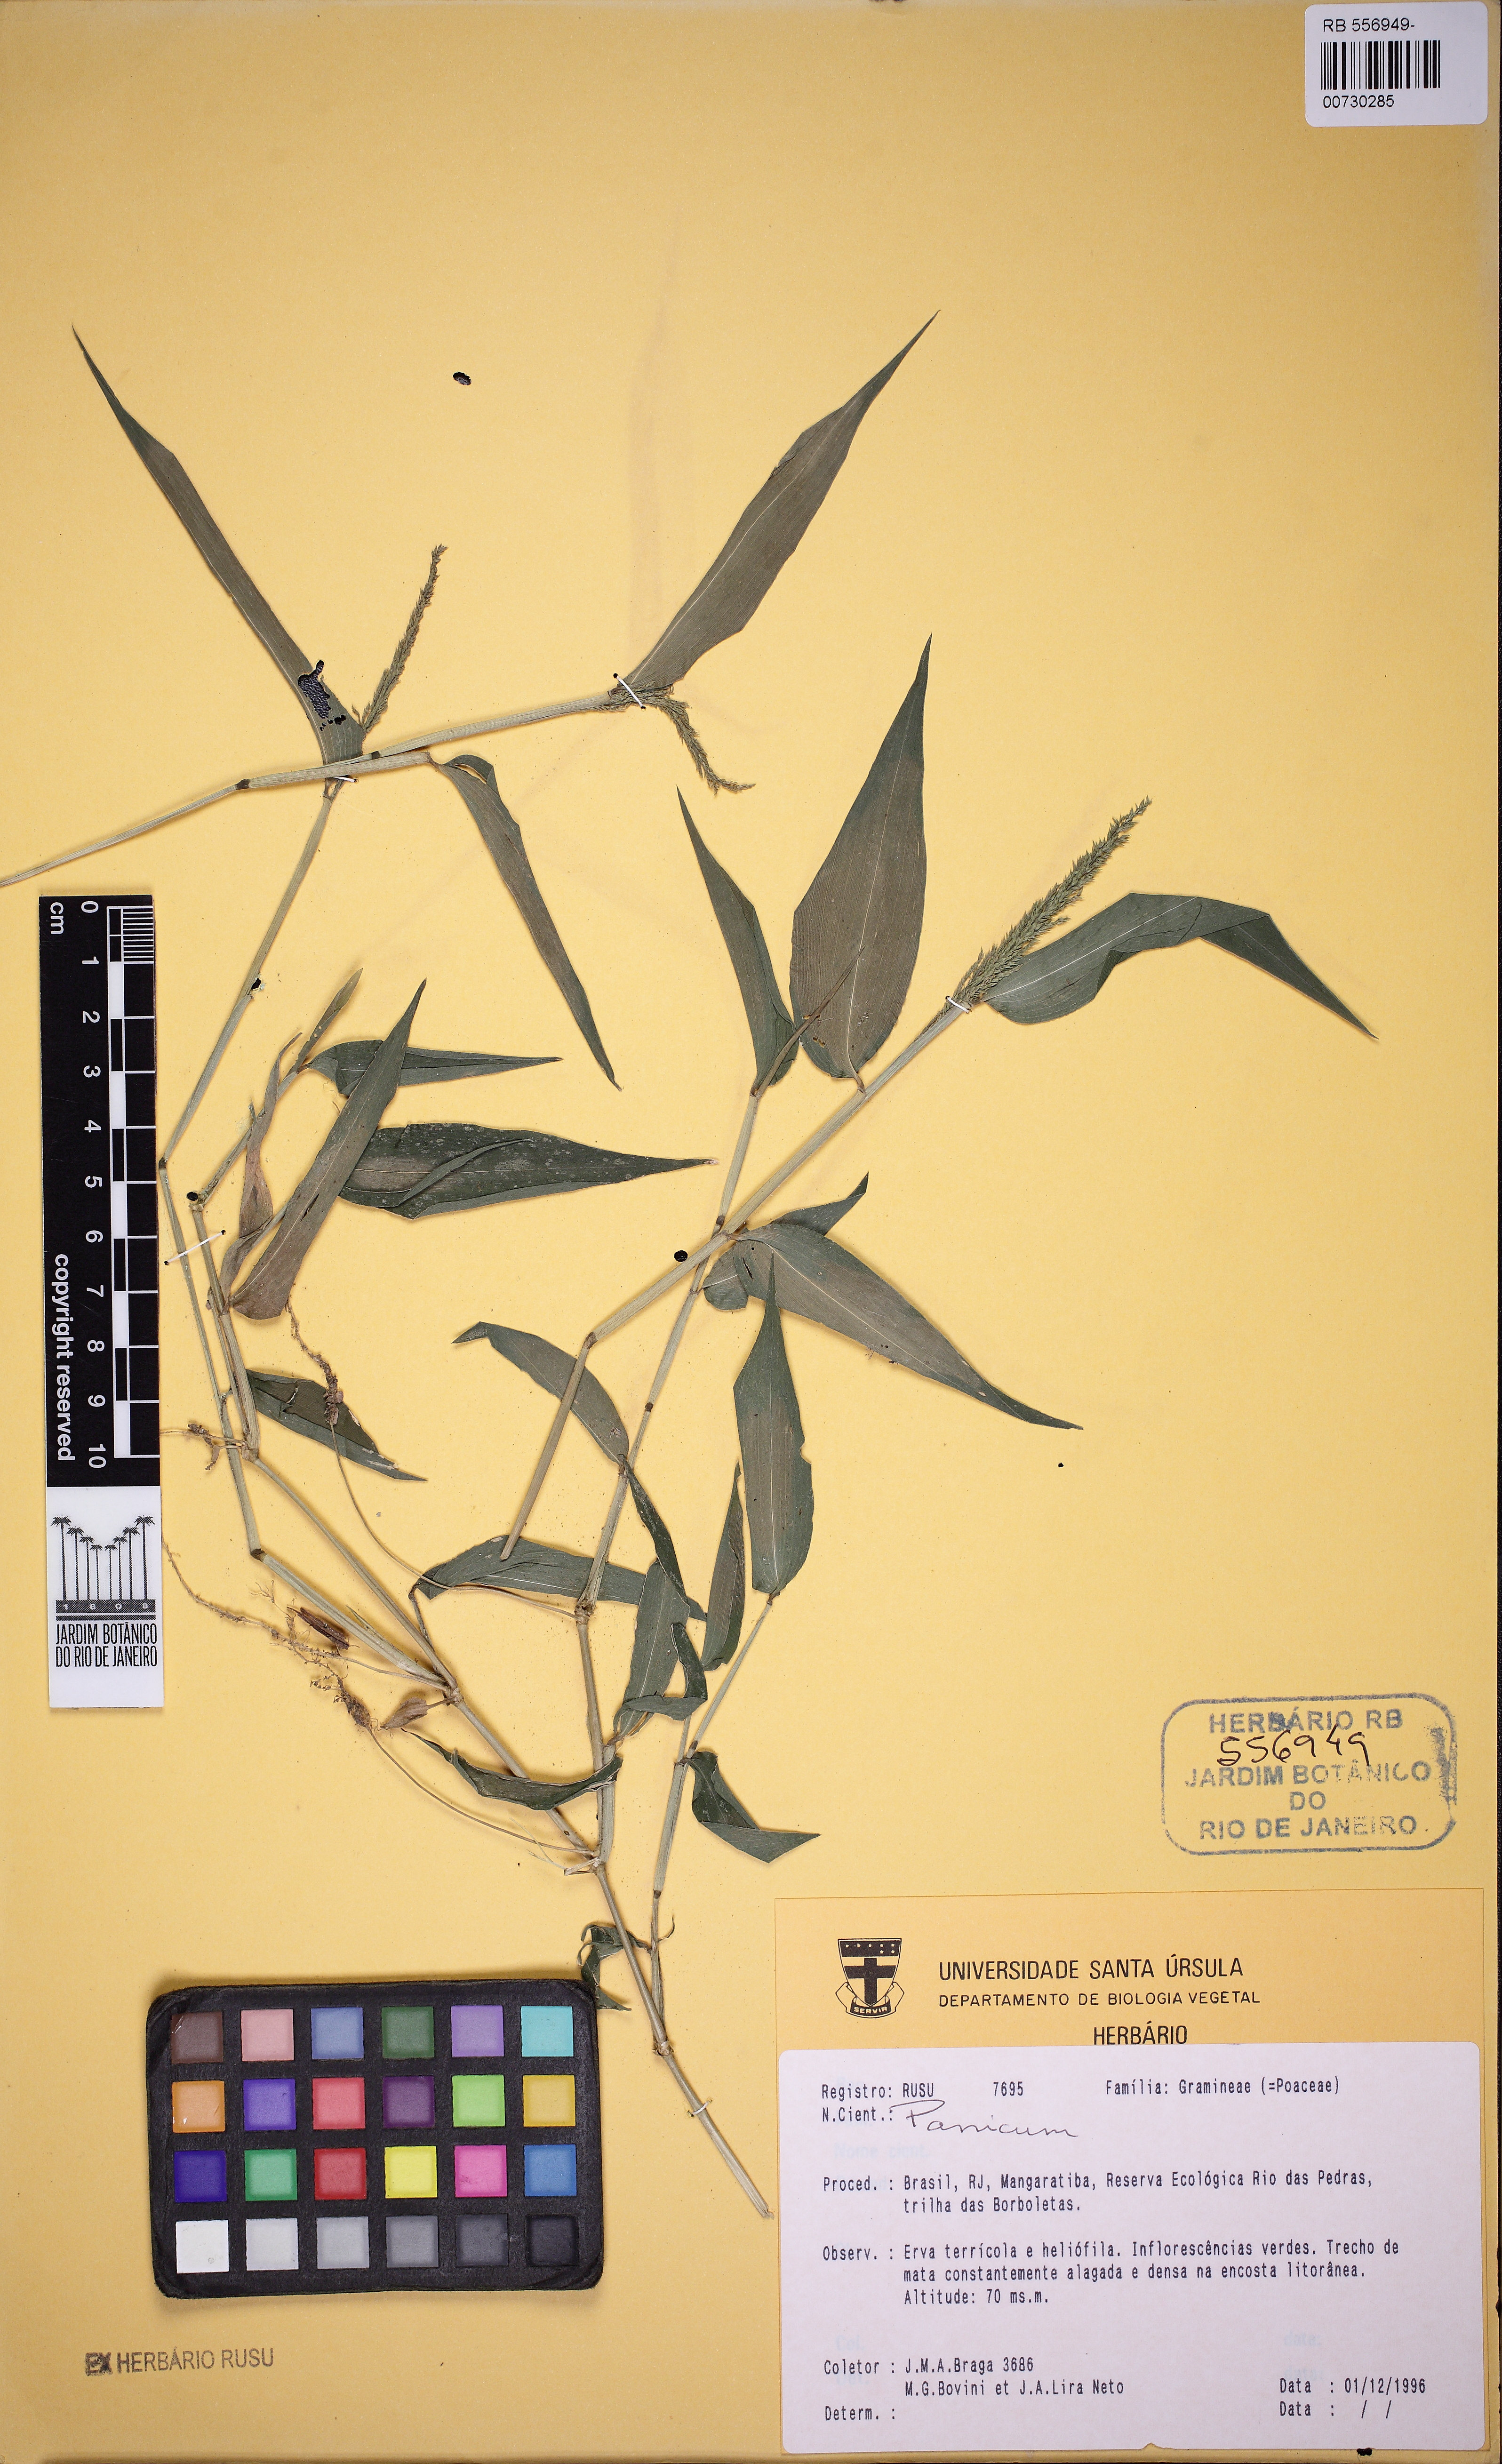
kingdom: Plantae
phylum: Tracheophyta
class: Liliopsida
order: Poales
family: Poaceae
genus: Ocellochloa
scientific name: Ocellochloa stolonifera
